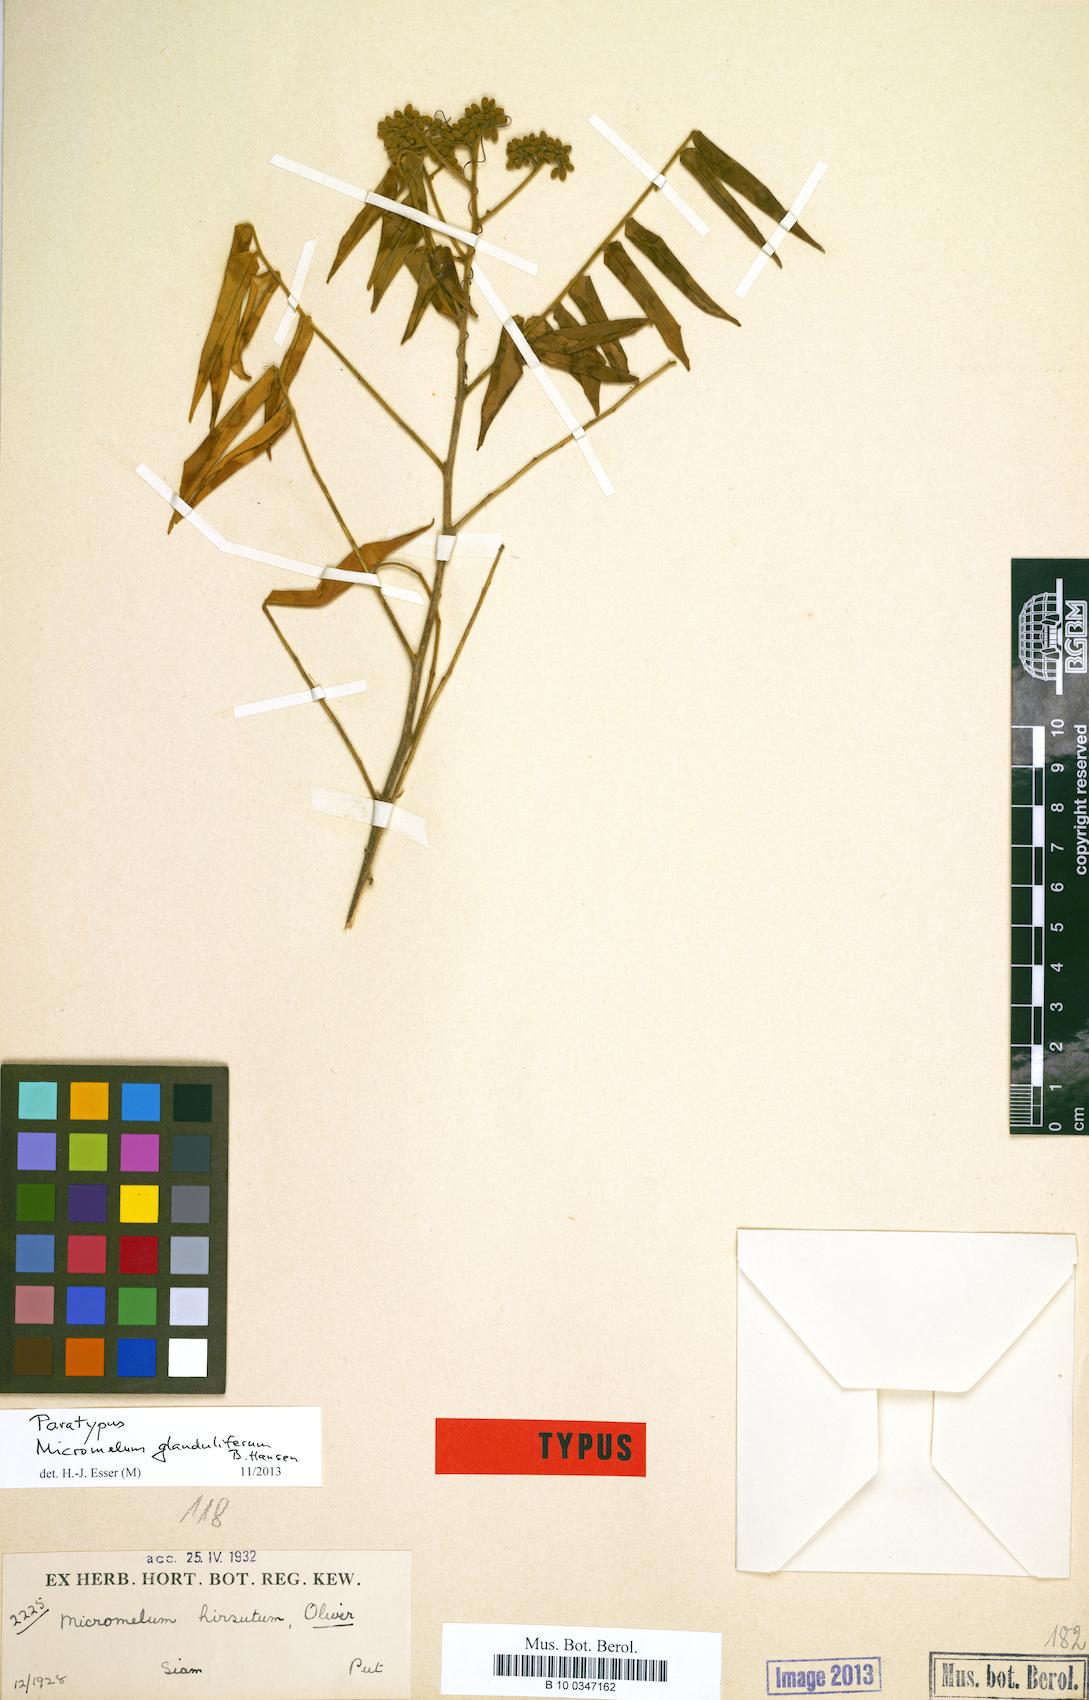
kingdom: Plantae
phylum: Tracheophyta
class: Magnoliopsida
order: Sapindales
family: Rutaceae
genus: Micromelum
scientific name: Micromelum hirsutum
